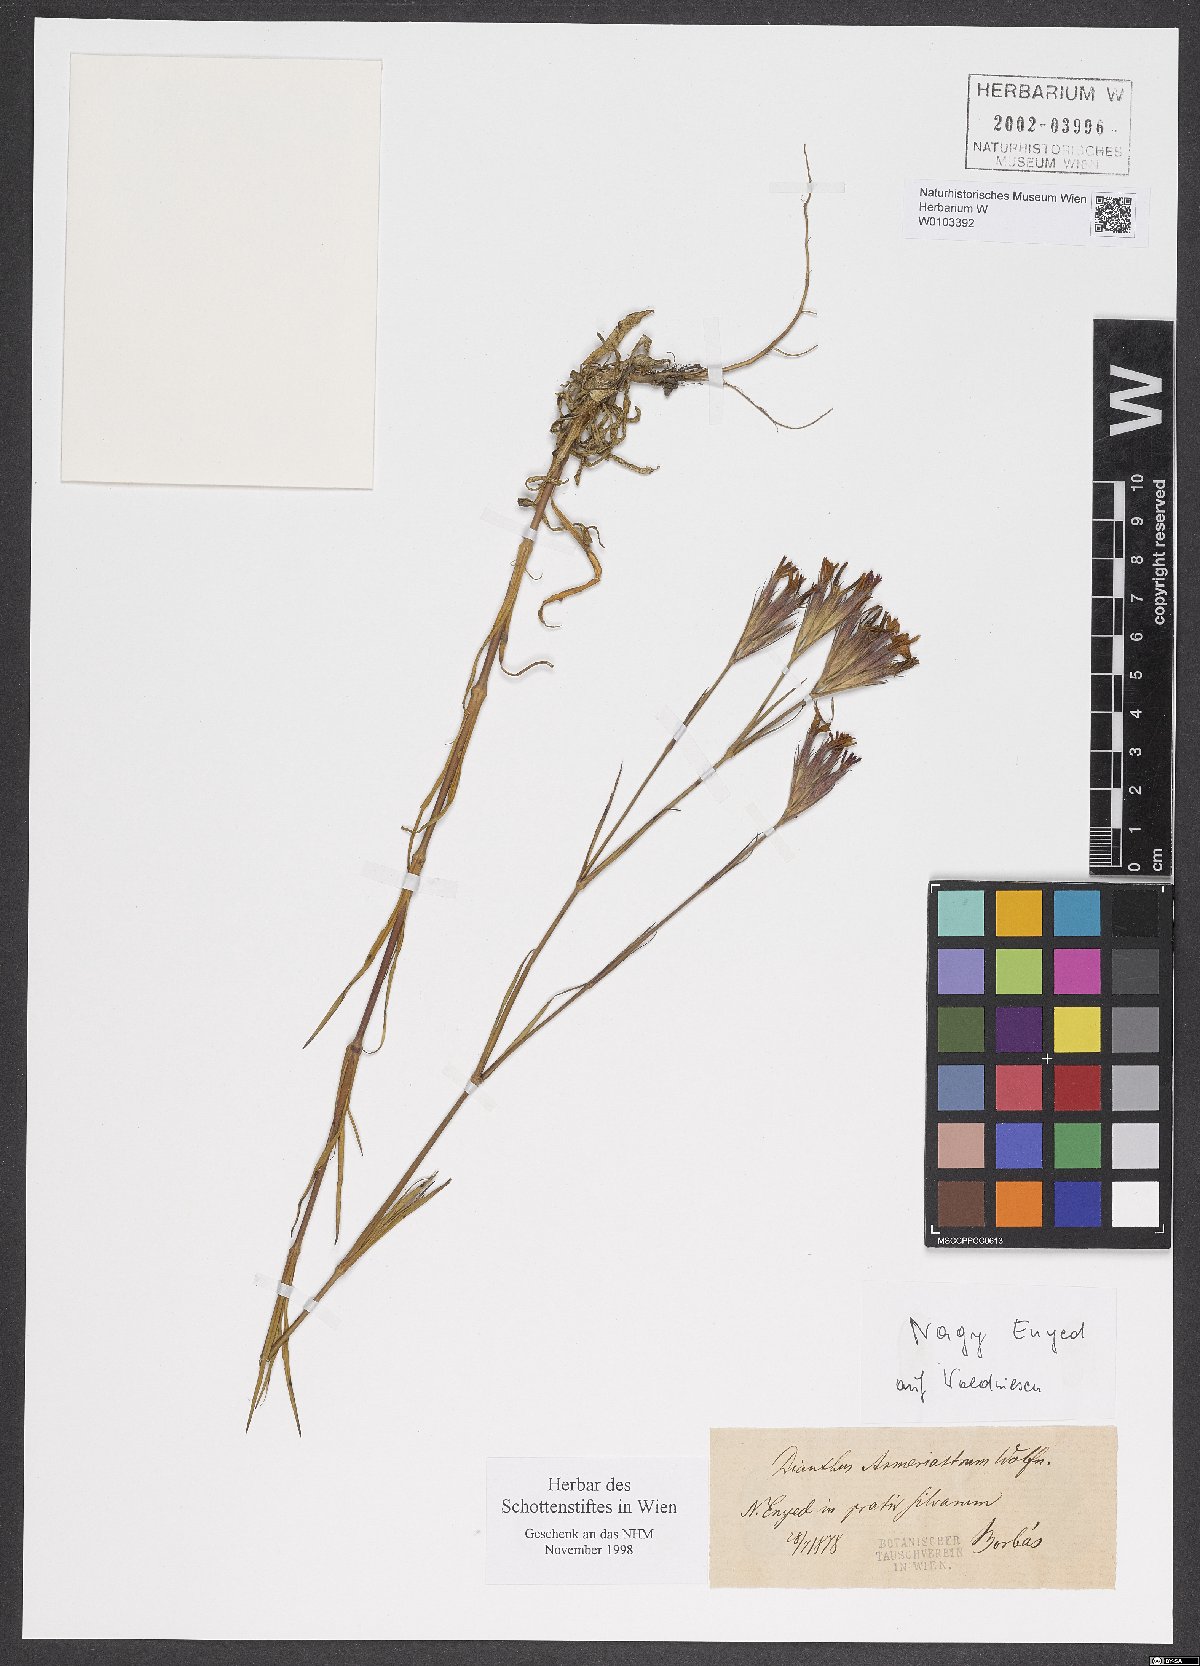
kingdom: Plantae
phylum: Tracheophyta
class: Magnoliopsida
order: Caryophyllales
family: Caryophyllaceae
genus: Dianthus
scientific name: Dianthus corymbosus
